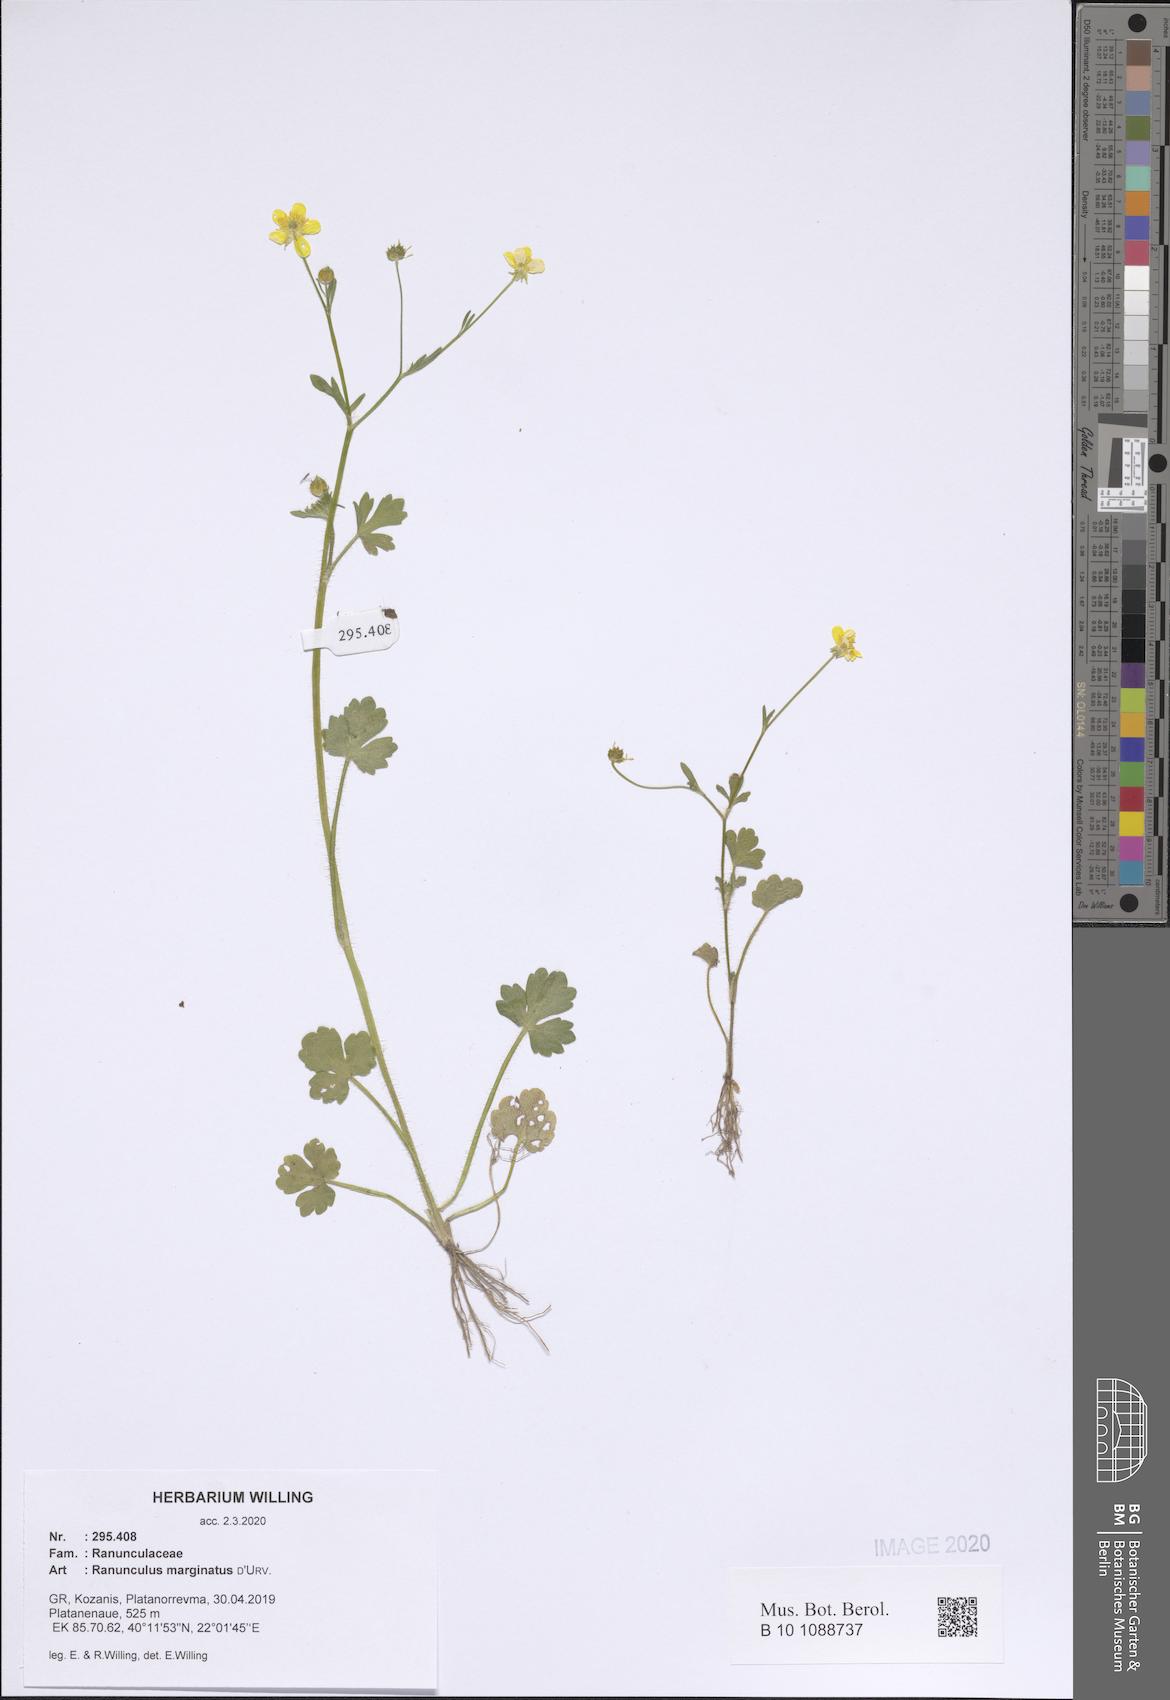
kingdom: Plantae
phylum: Tracheophyta
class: Magnoliopsida
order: Ranunculales
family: Ranunculaceae
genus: Ranunculus
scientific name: Ranunculus marginatus
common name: St. martin's buttercup
